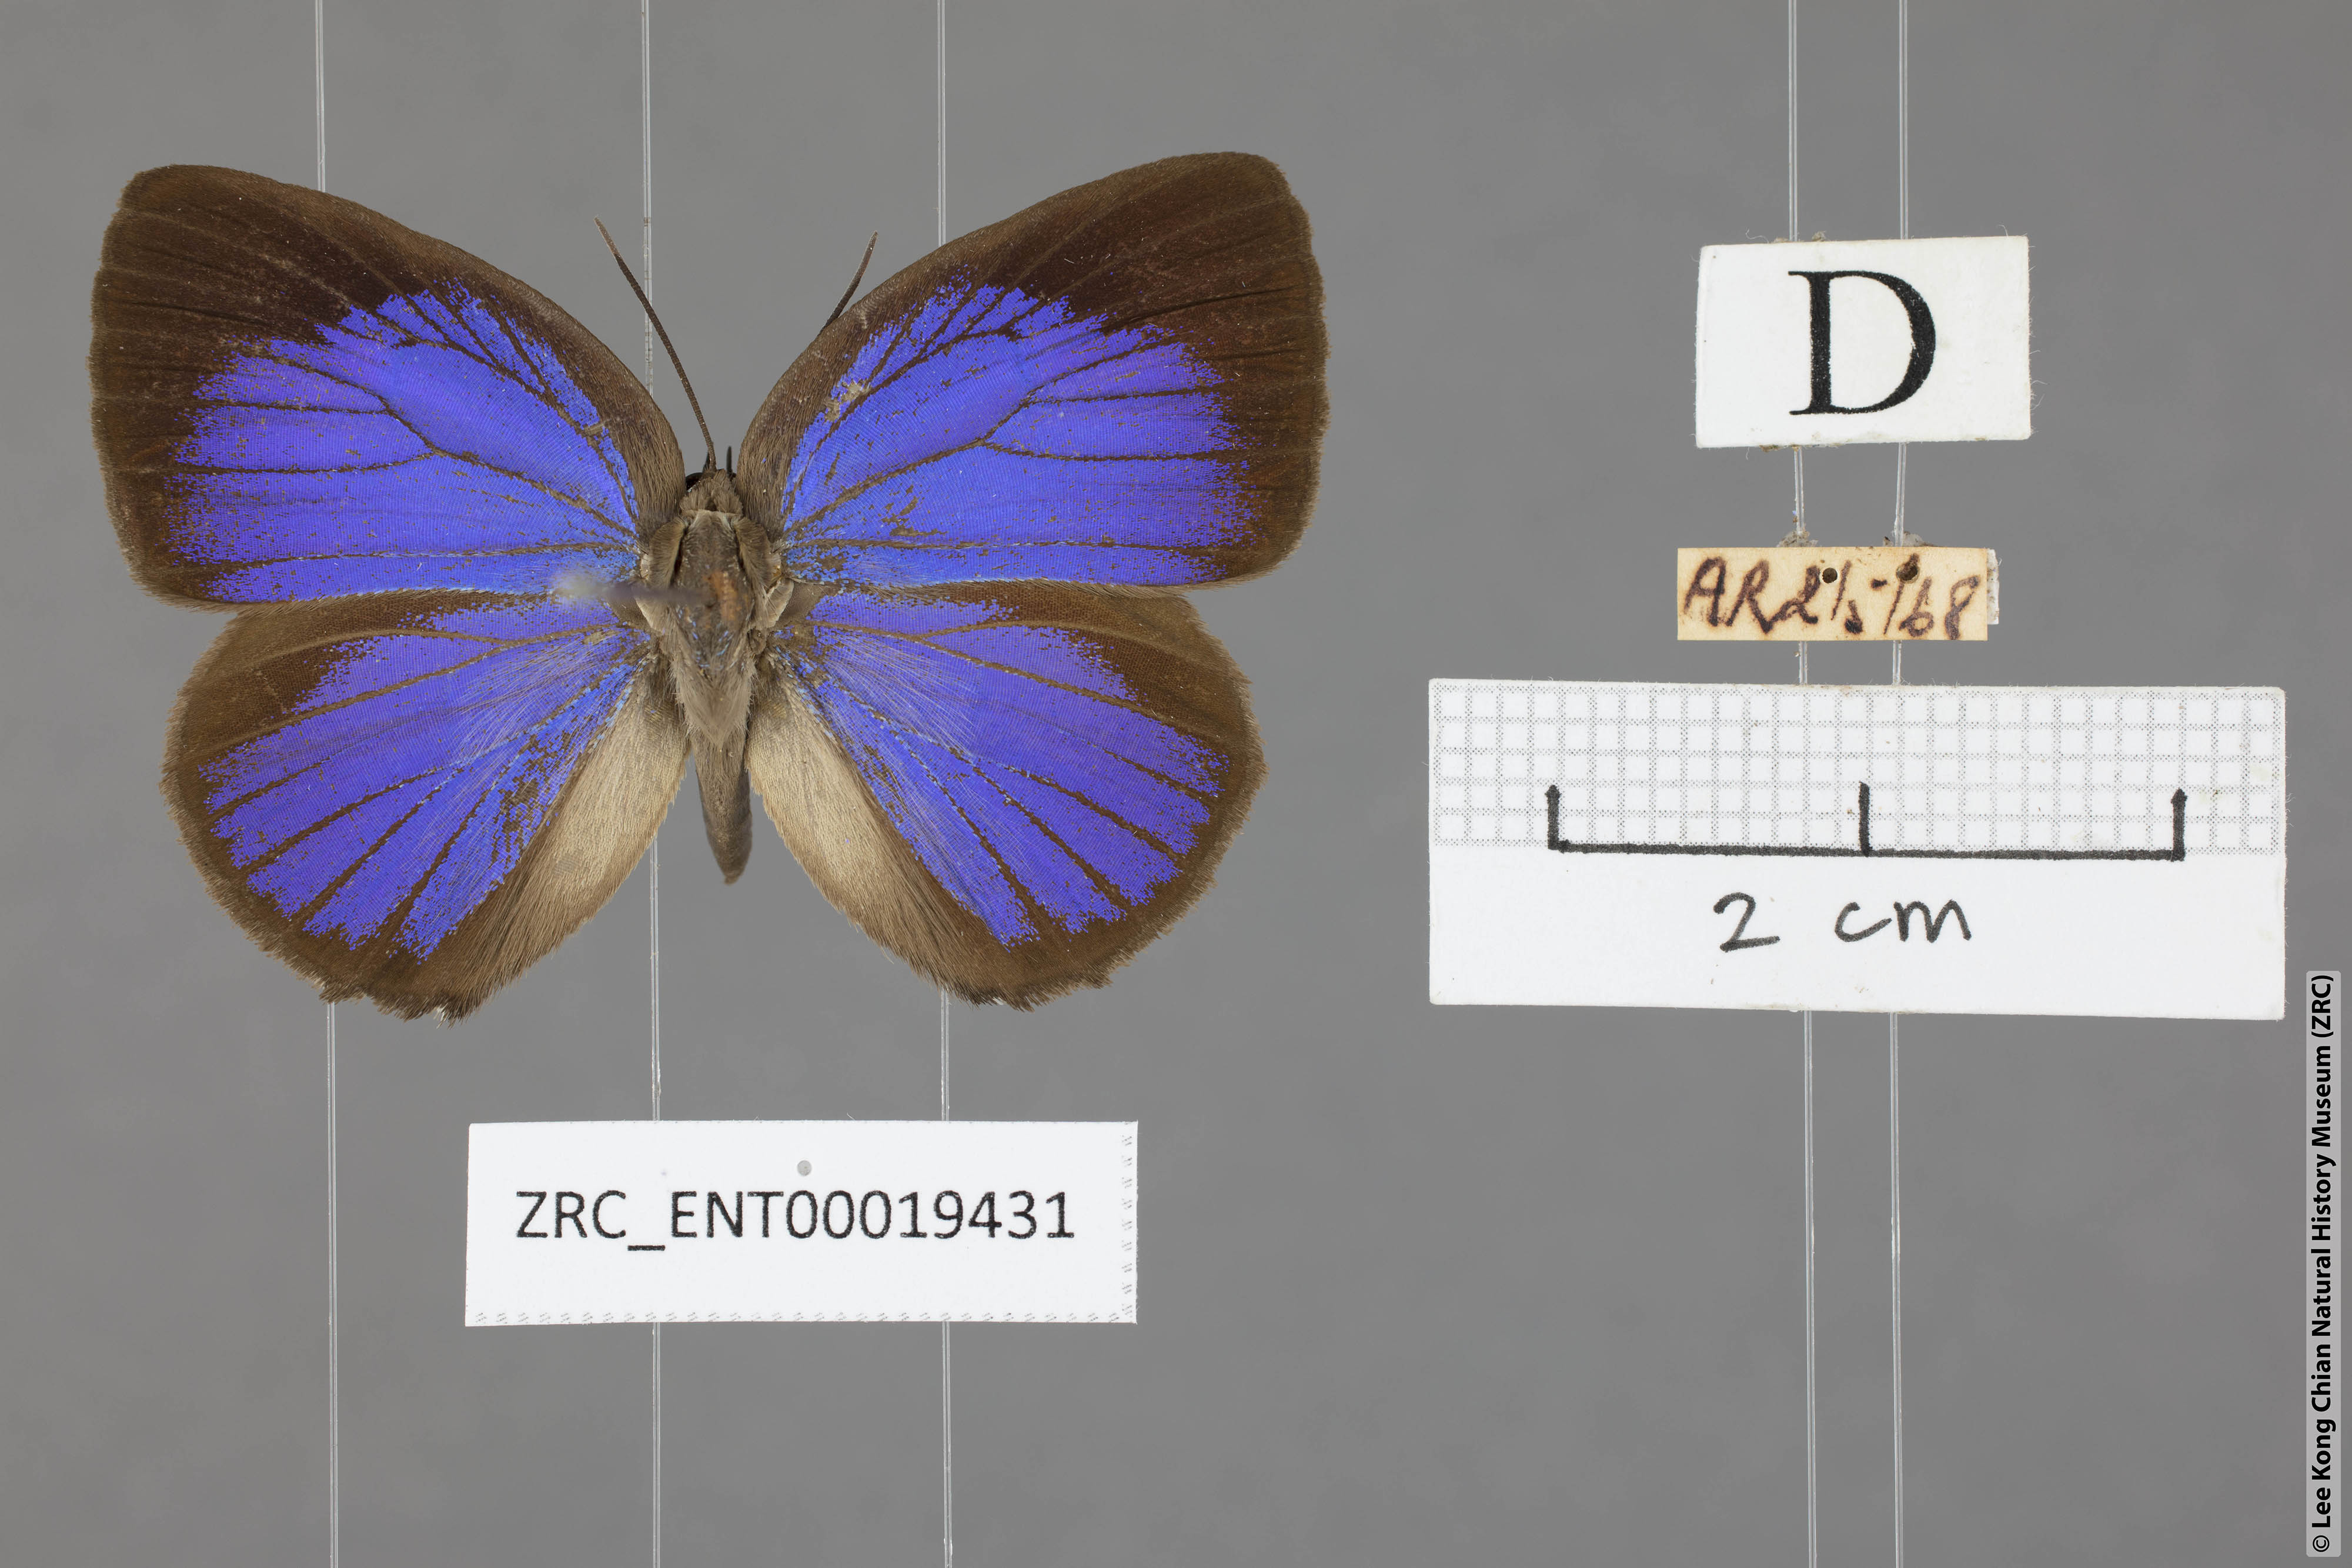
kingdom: Animalia
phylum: Arthropoda
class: Insecta
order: Lepidoptera
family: Lycaenidae
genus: Arhopala
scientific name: Arhopala epimuta
